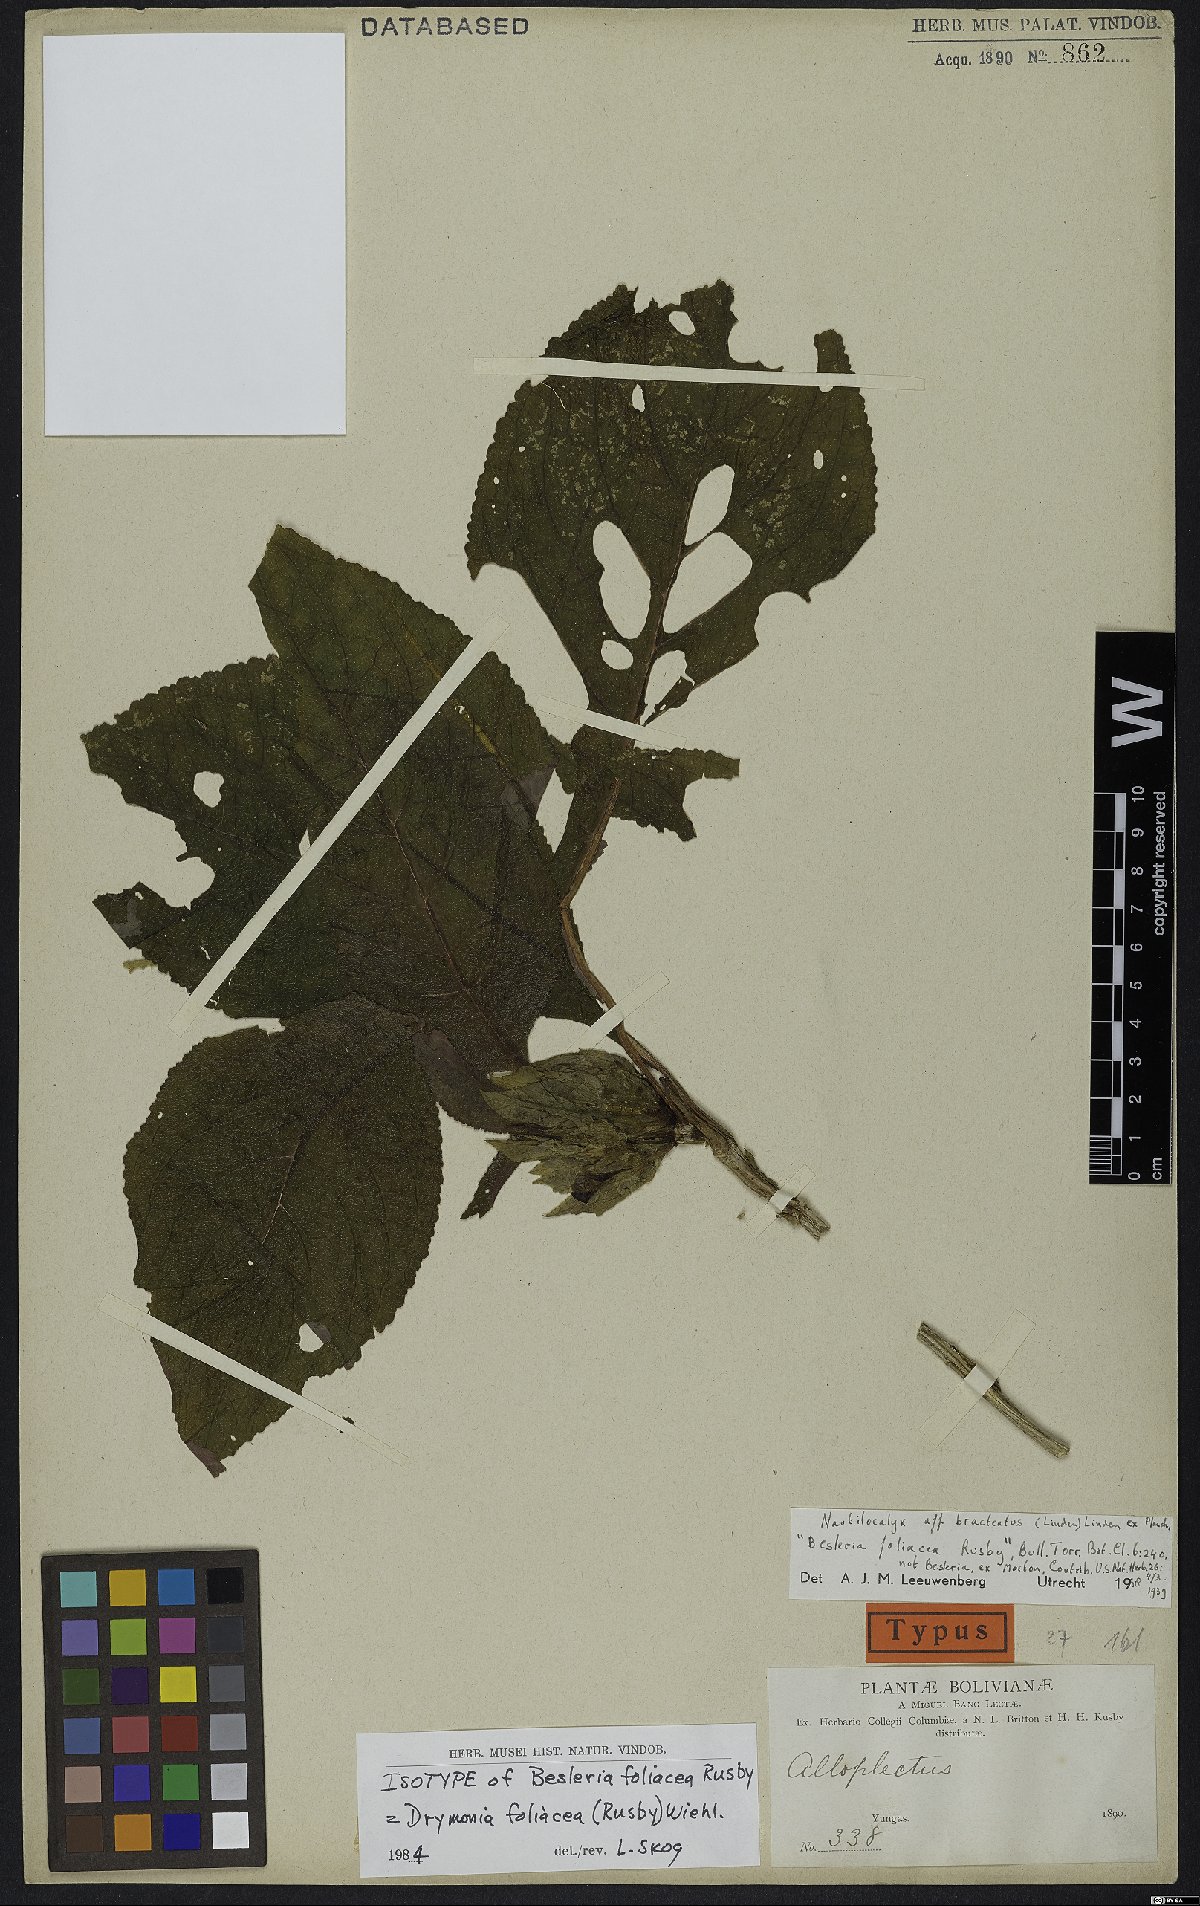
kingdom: Plantae
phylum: Tracheophyta
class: Magnoliopsida
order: Lamiales
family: Gesneriaceae
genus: Drymonia
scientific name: Drymonia foliacea
